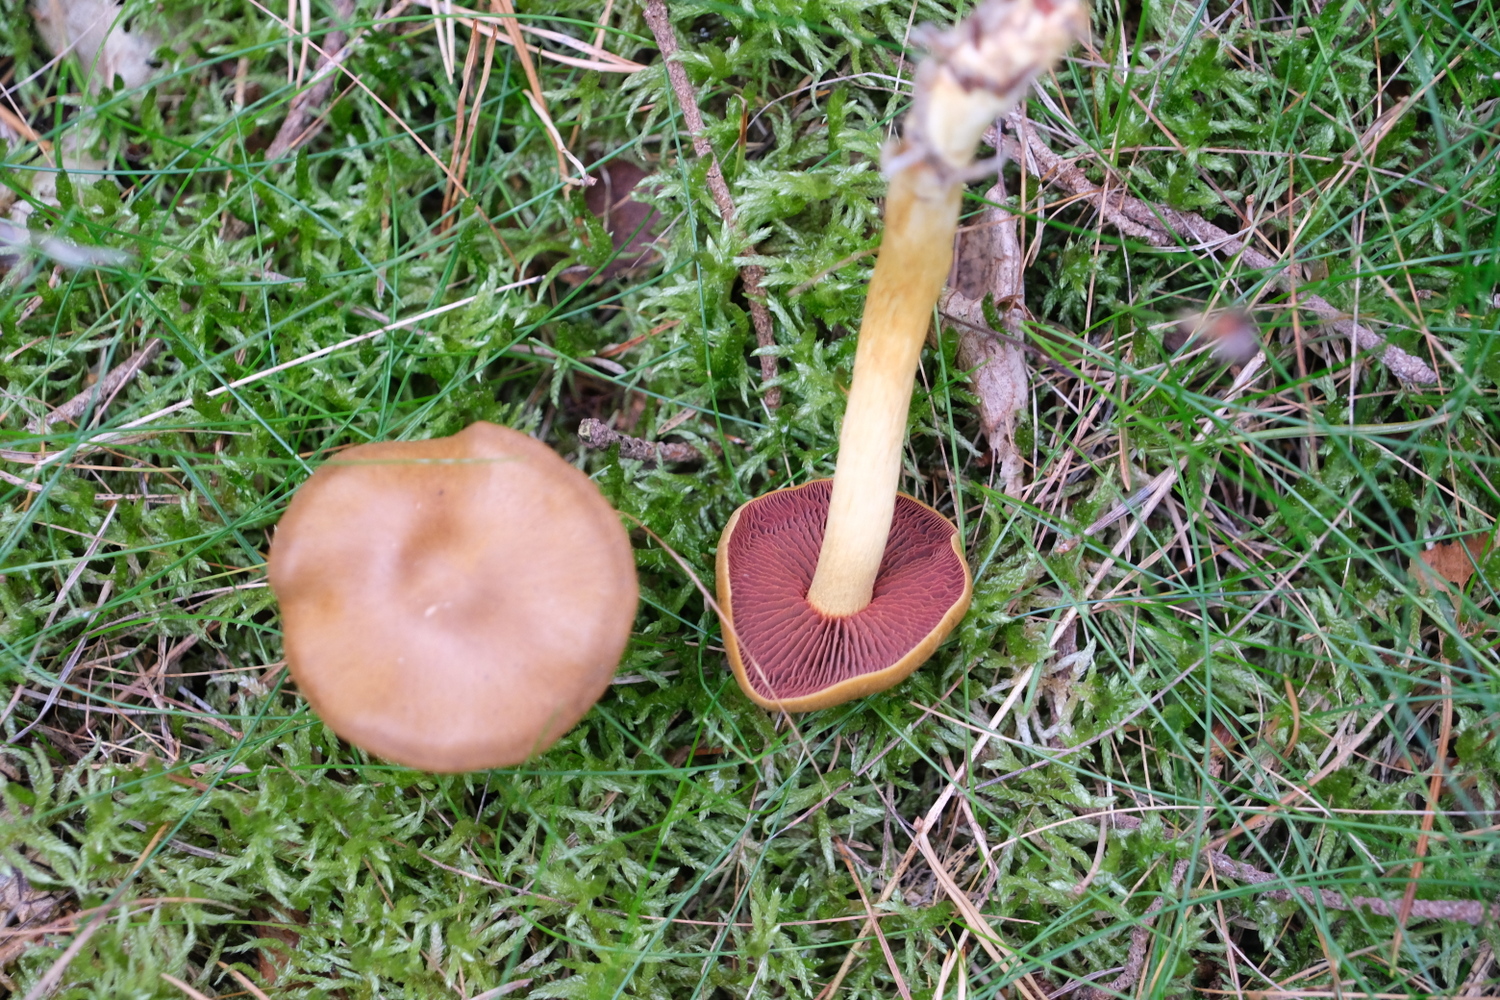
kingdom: Fungi
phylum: Basidiomycota
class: Agaricomycetes
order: Agaricales
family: Cortinariaceae
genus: Cortinarius
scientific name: Cortinarius
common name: cinnoberbladet slørhat
